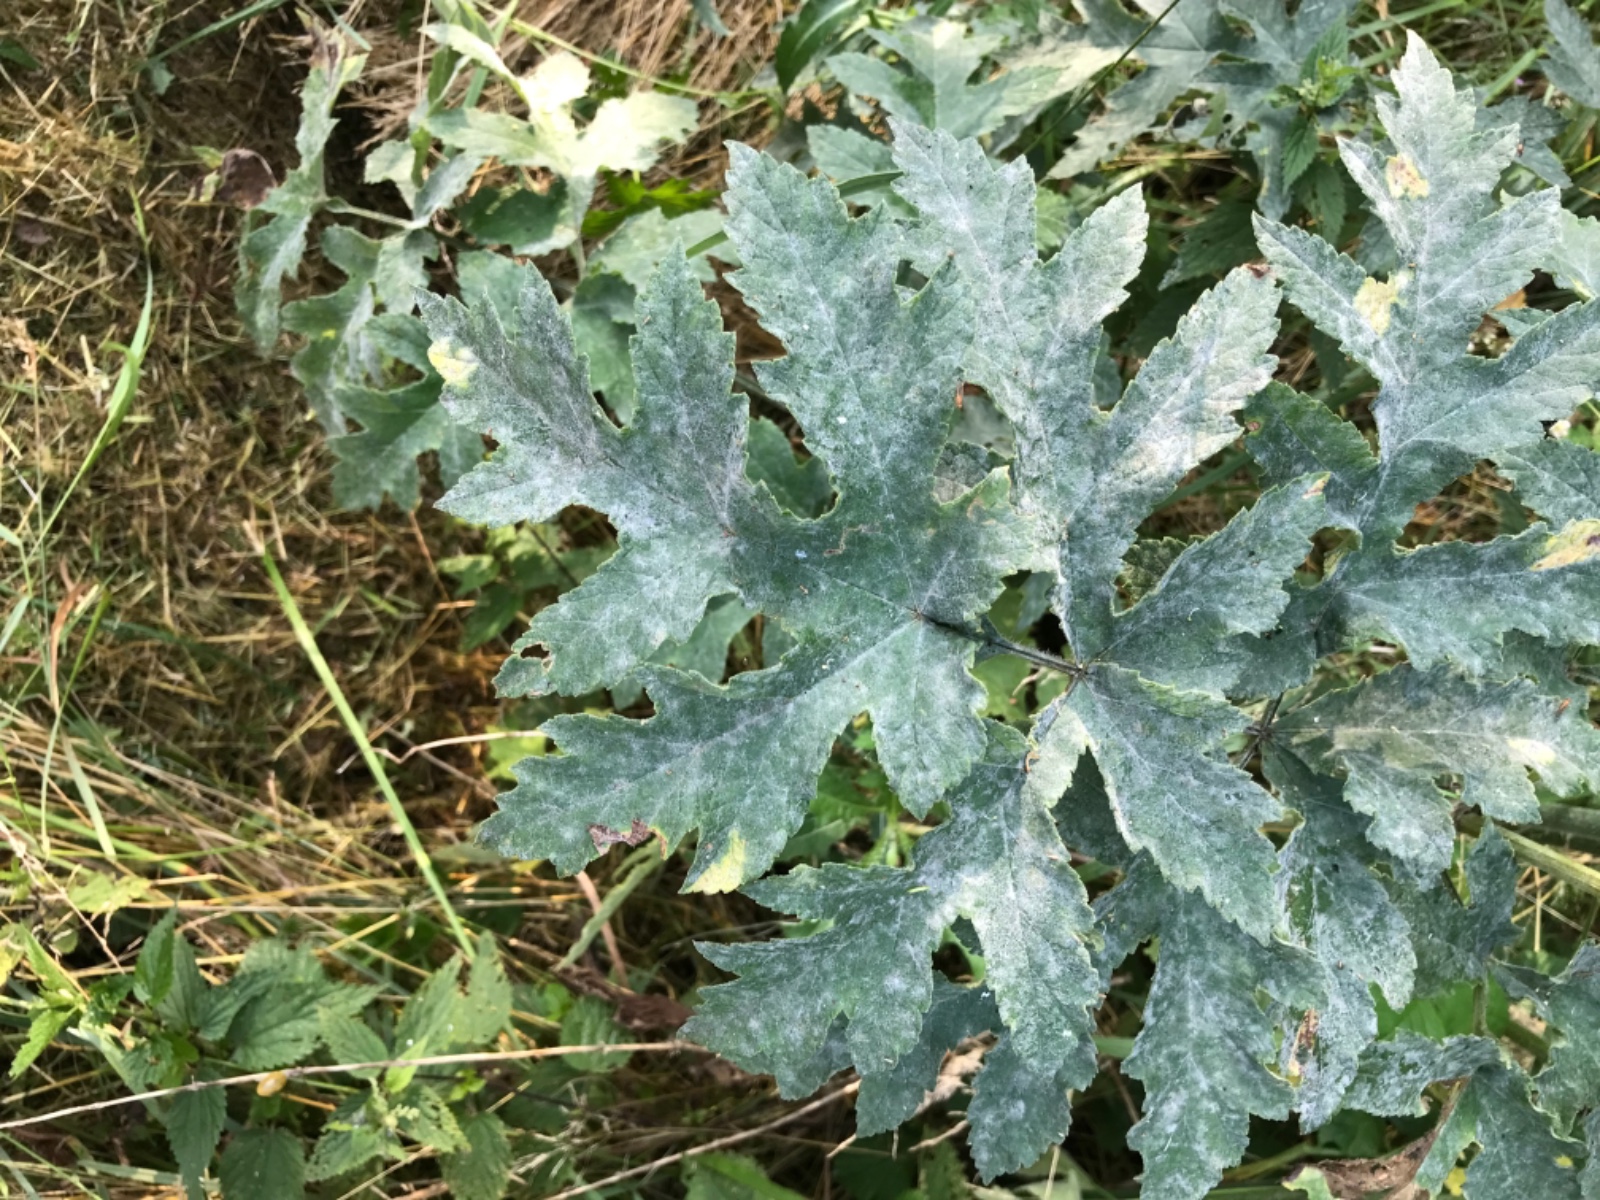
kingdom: Fungi
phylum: Ascomycota
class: Leotiomycetes
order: Helotiales
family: Erysiphaceae
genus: Erysiphe
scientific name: Erysiphe heraclei
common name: skærmplante-meldug
